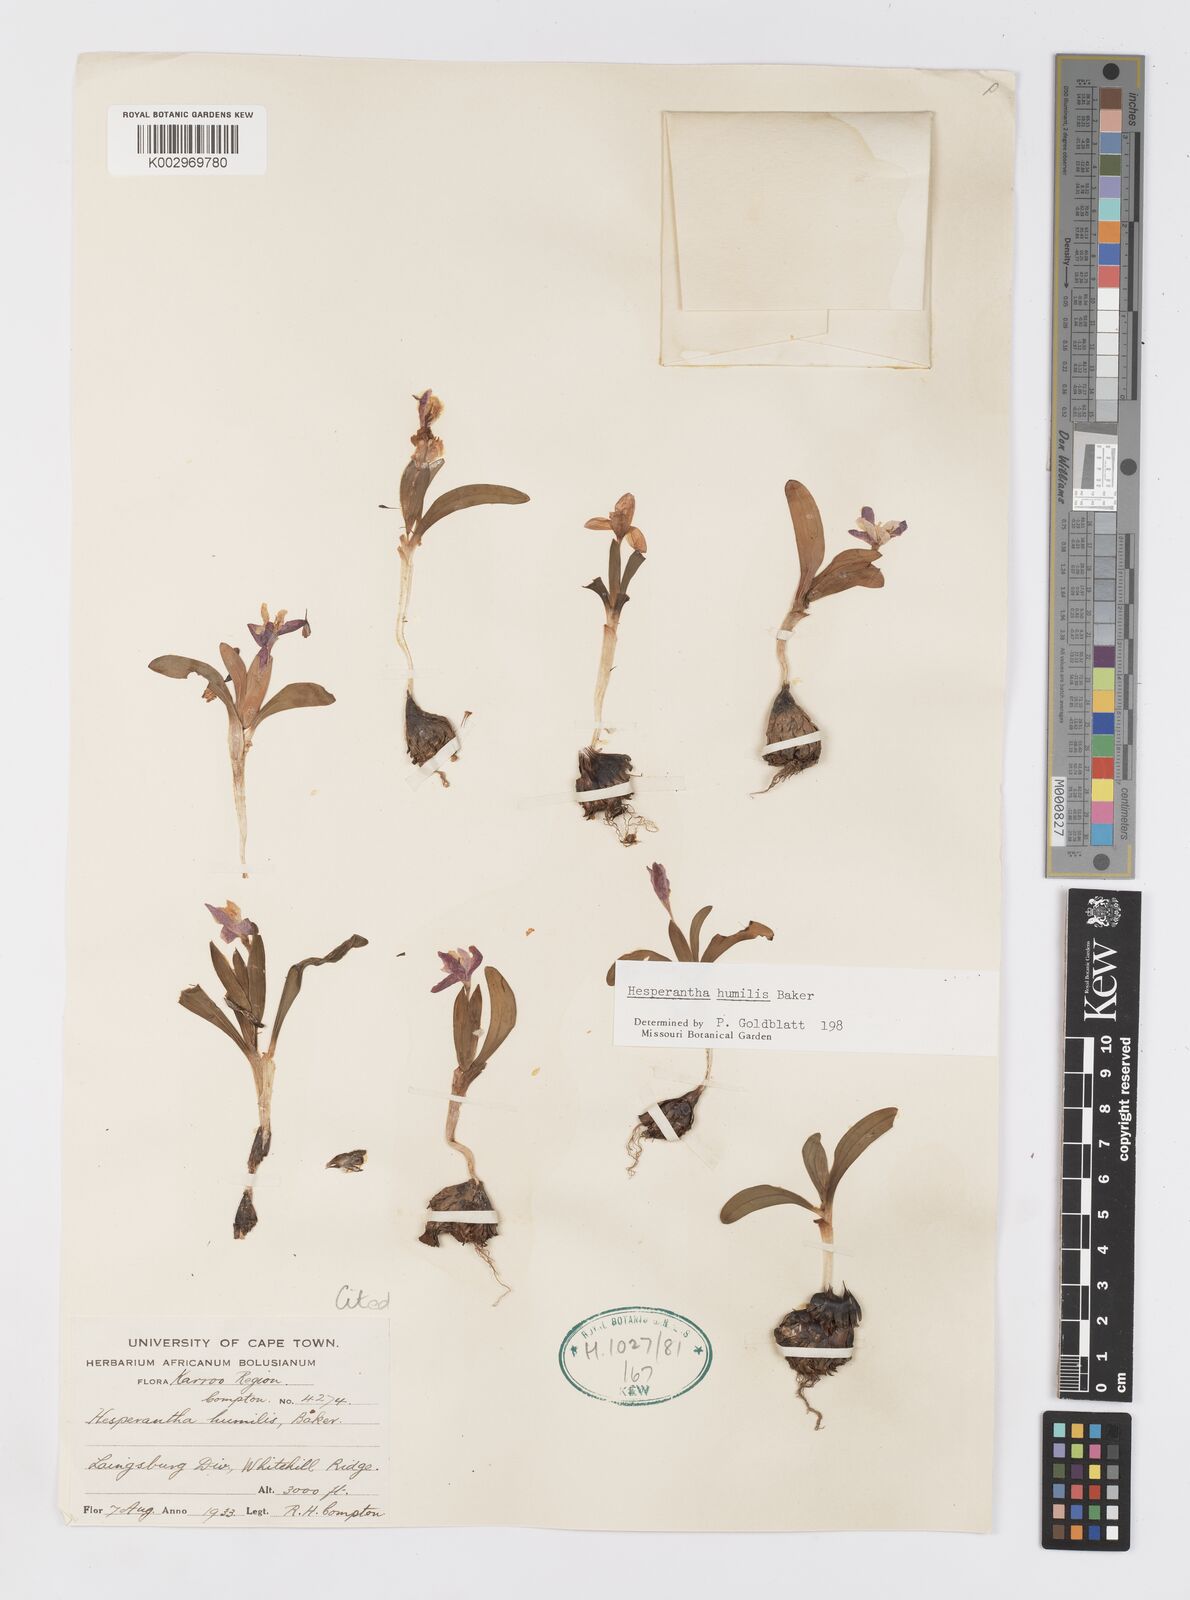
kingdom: Plantae
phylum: Tracheophyta
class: Liliopsida
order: Asparagales
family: Iridaceae
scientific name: Iridaceae
